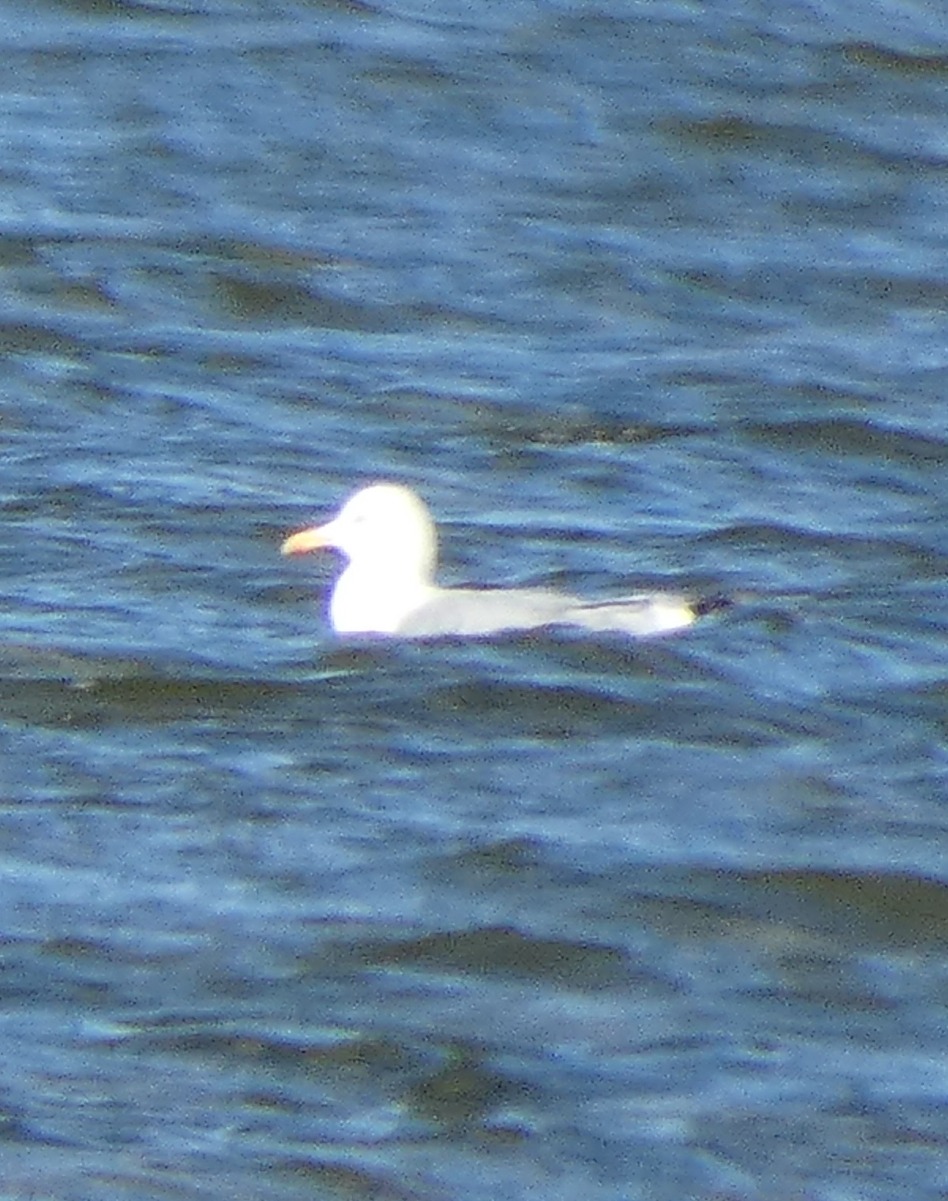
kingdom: Animalia
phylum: Chordata
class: Aves
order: Charadriiformes
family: Laridae
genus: Larus
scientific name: Larus argentatus
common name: Sølvmåge
